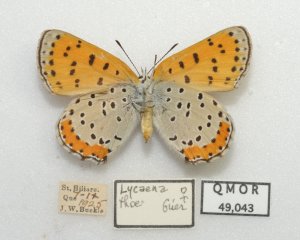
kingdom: Animalia
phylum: Arthropoda
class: Insecta
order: Lepidoptera
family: Sesiidae
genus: Sesia
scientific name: Sesia Lycaena hyllus
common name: Bronze Copper
